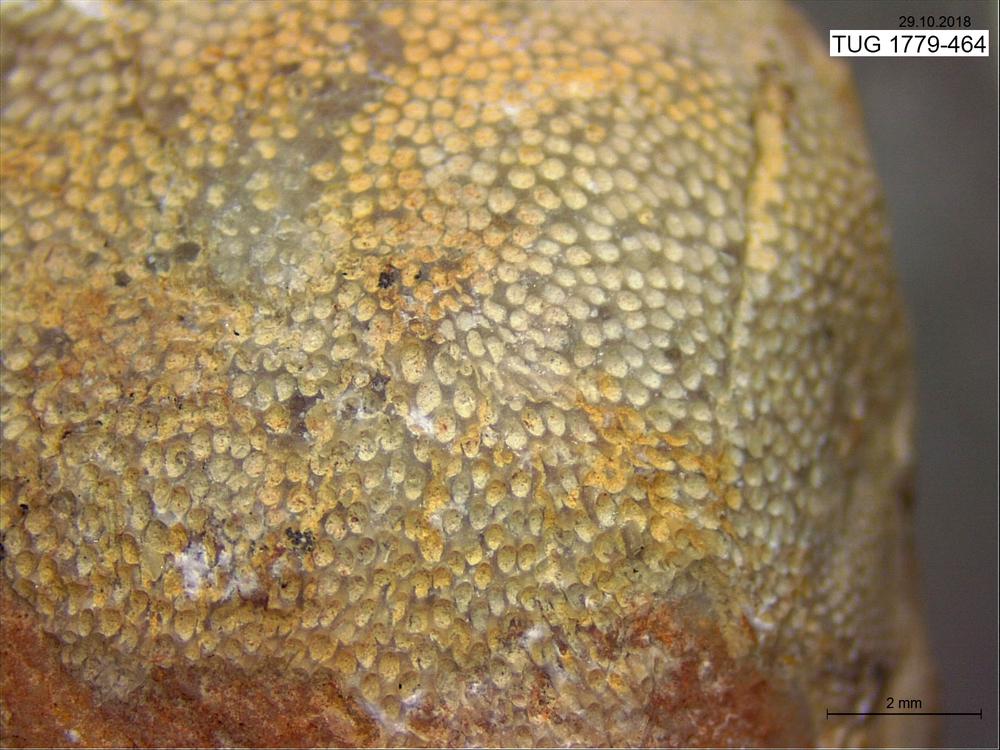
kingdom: Animalia
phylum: Bryozoa
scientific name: Bryozoa
